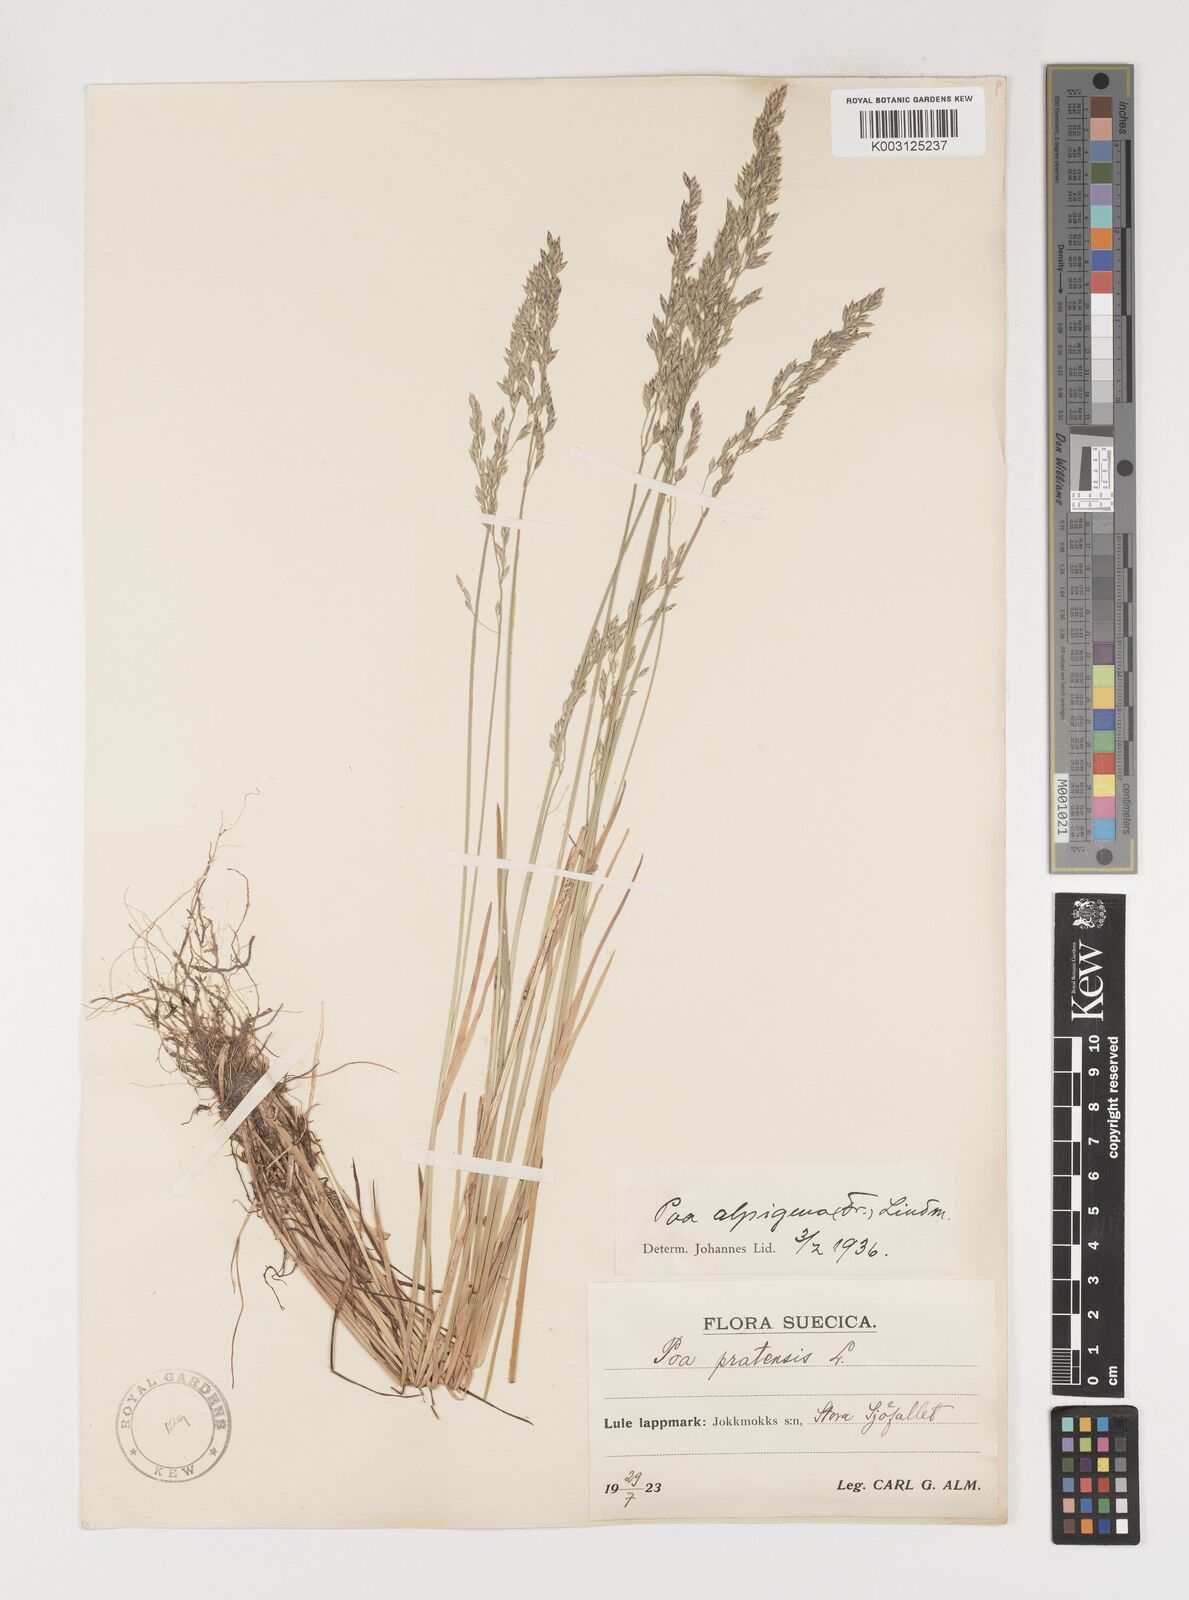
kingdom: Plantae
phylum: Tracheophyta
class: Liliopsida
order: Poales
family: Poaceae
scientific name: Poaceae
